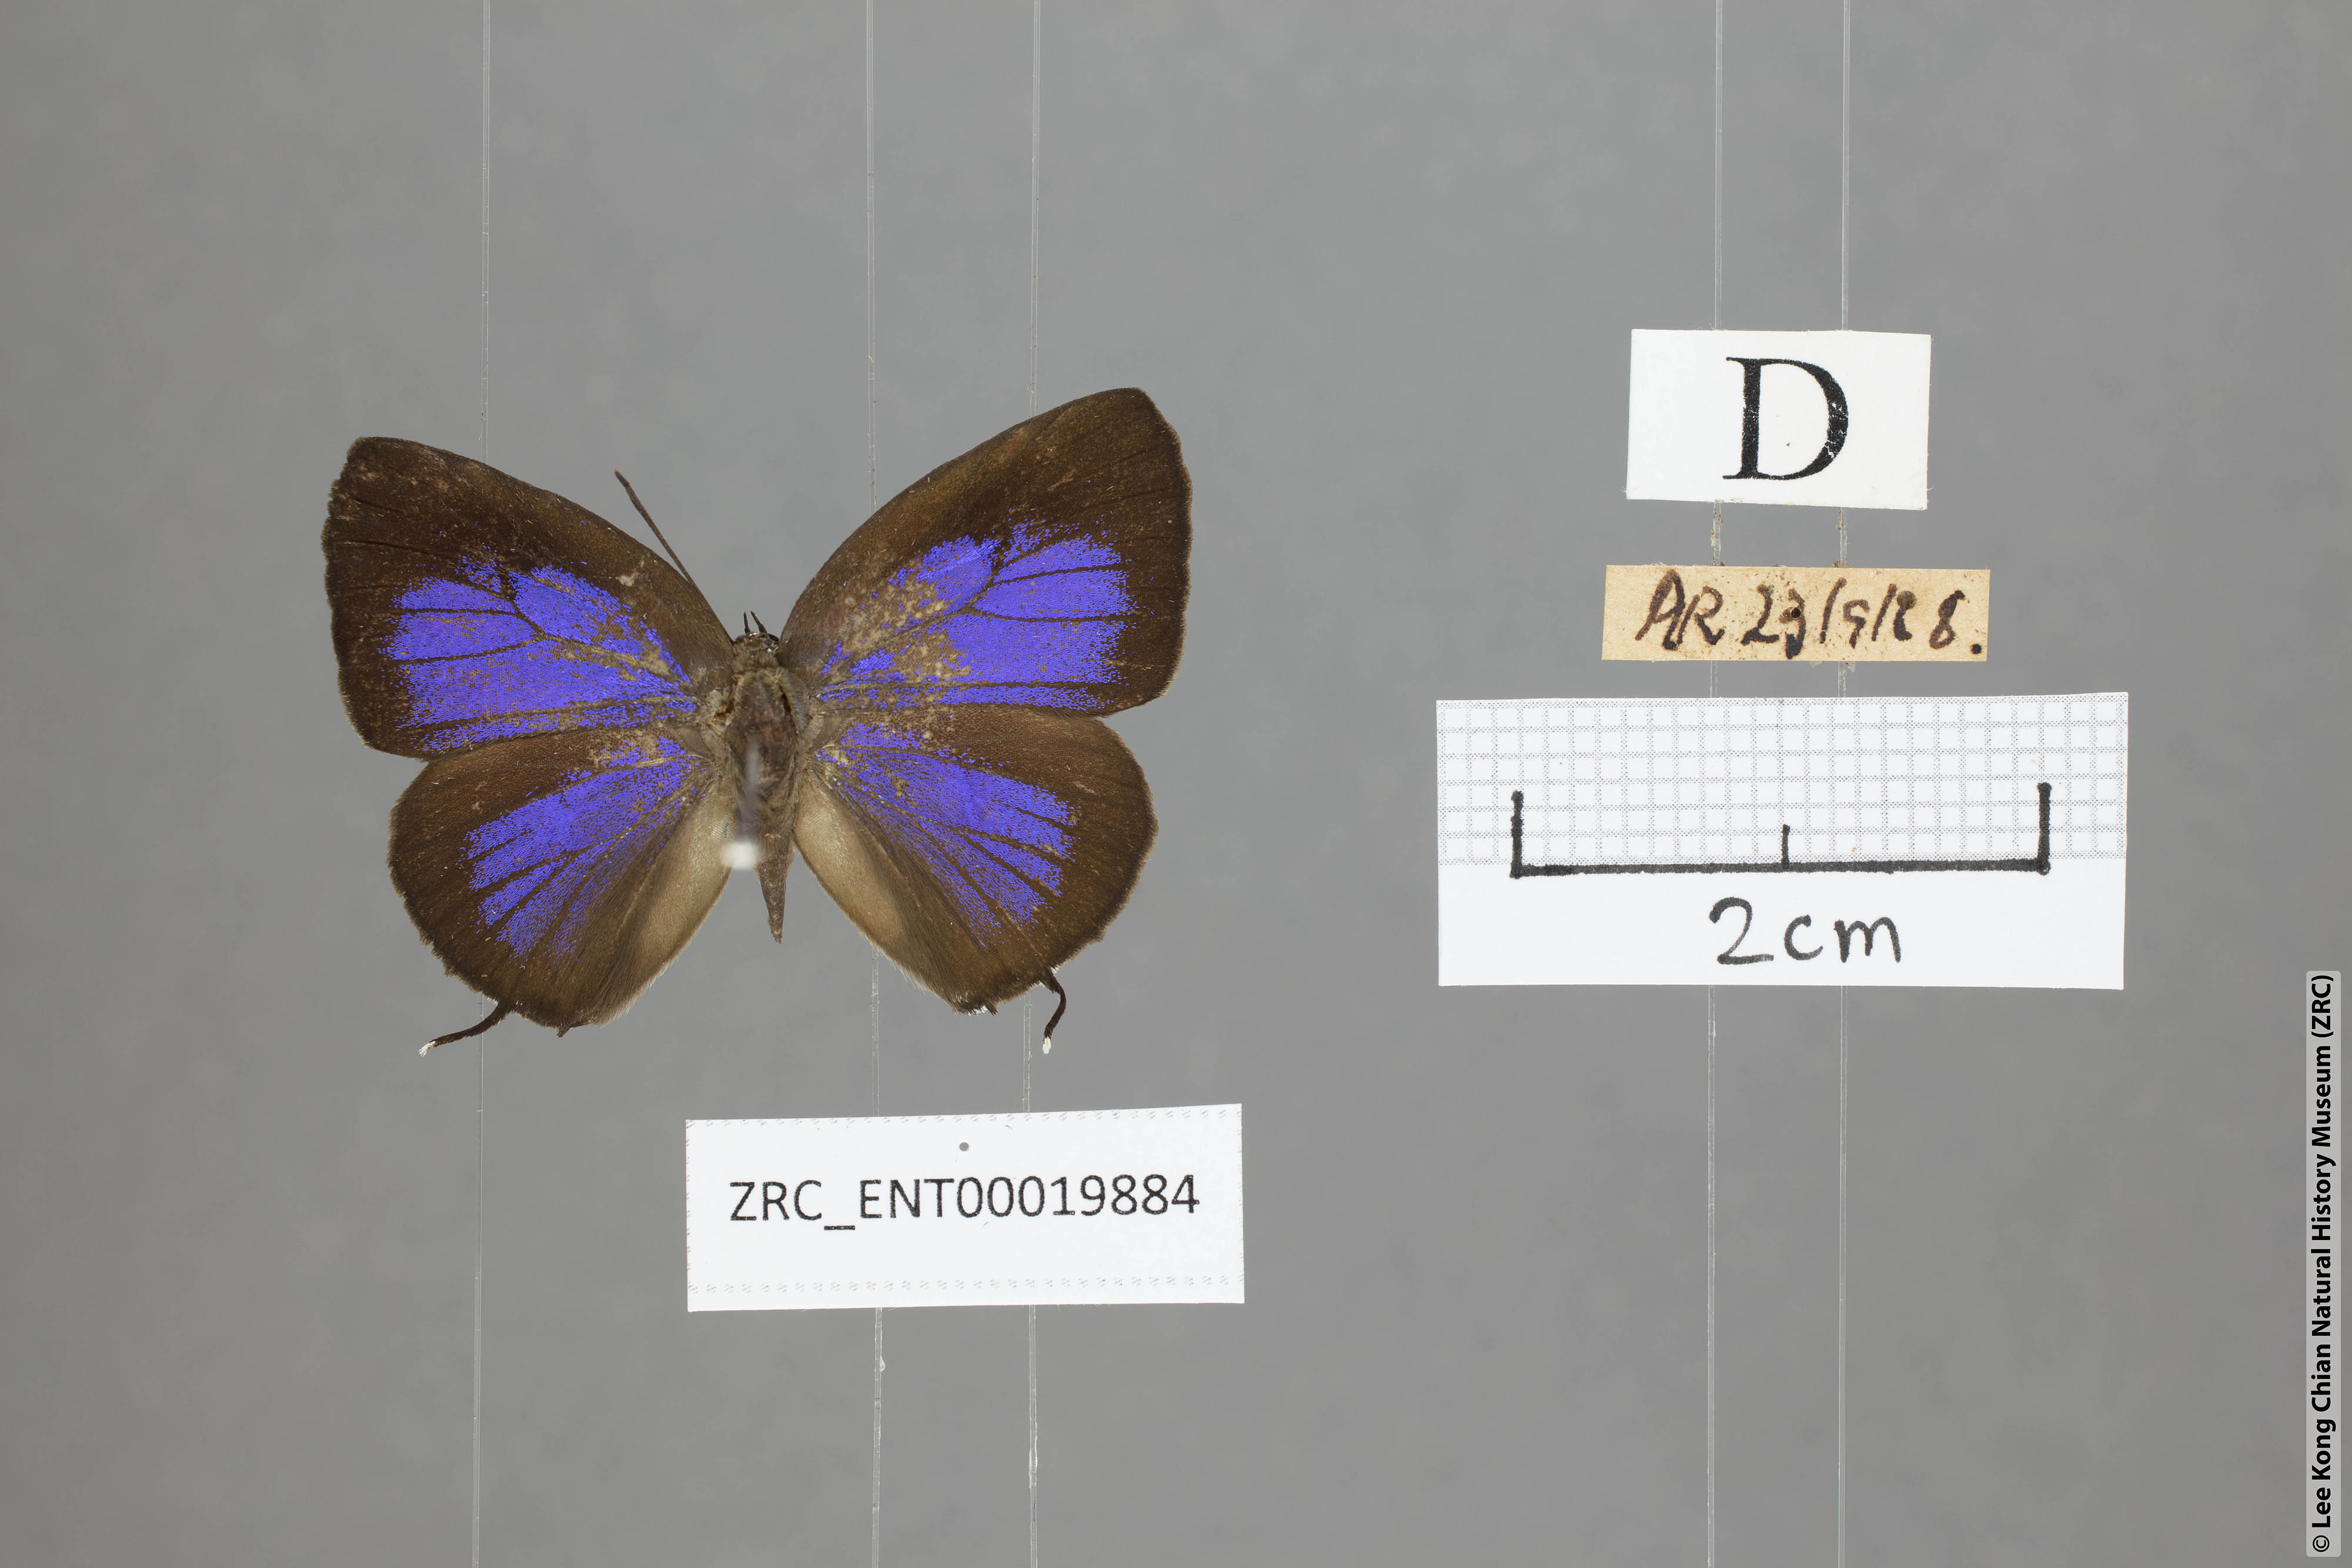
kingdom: Animalia
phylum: Arthropoda
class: Insecta
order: Lepidoptera
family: Lycaenidae
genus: Arhopala
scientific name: Arhopala sublustris
